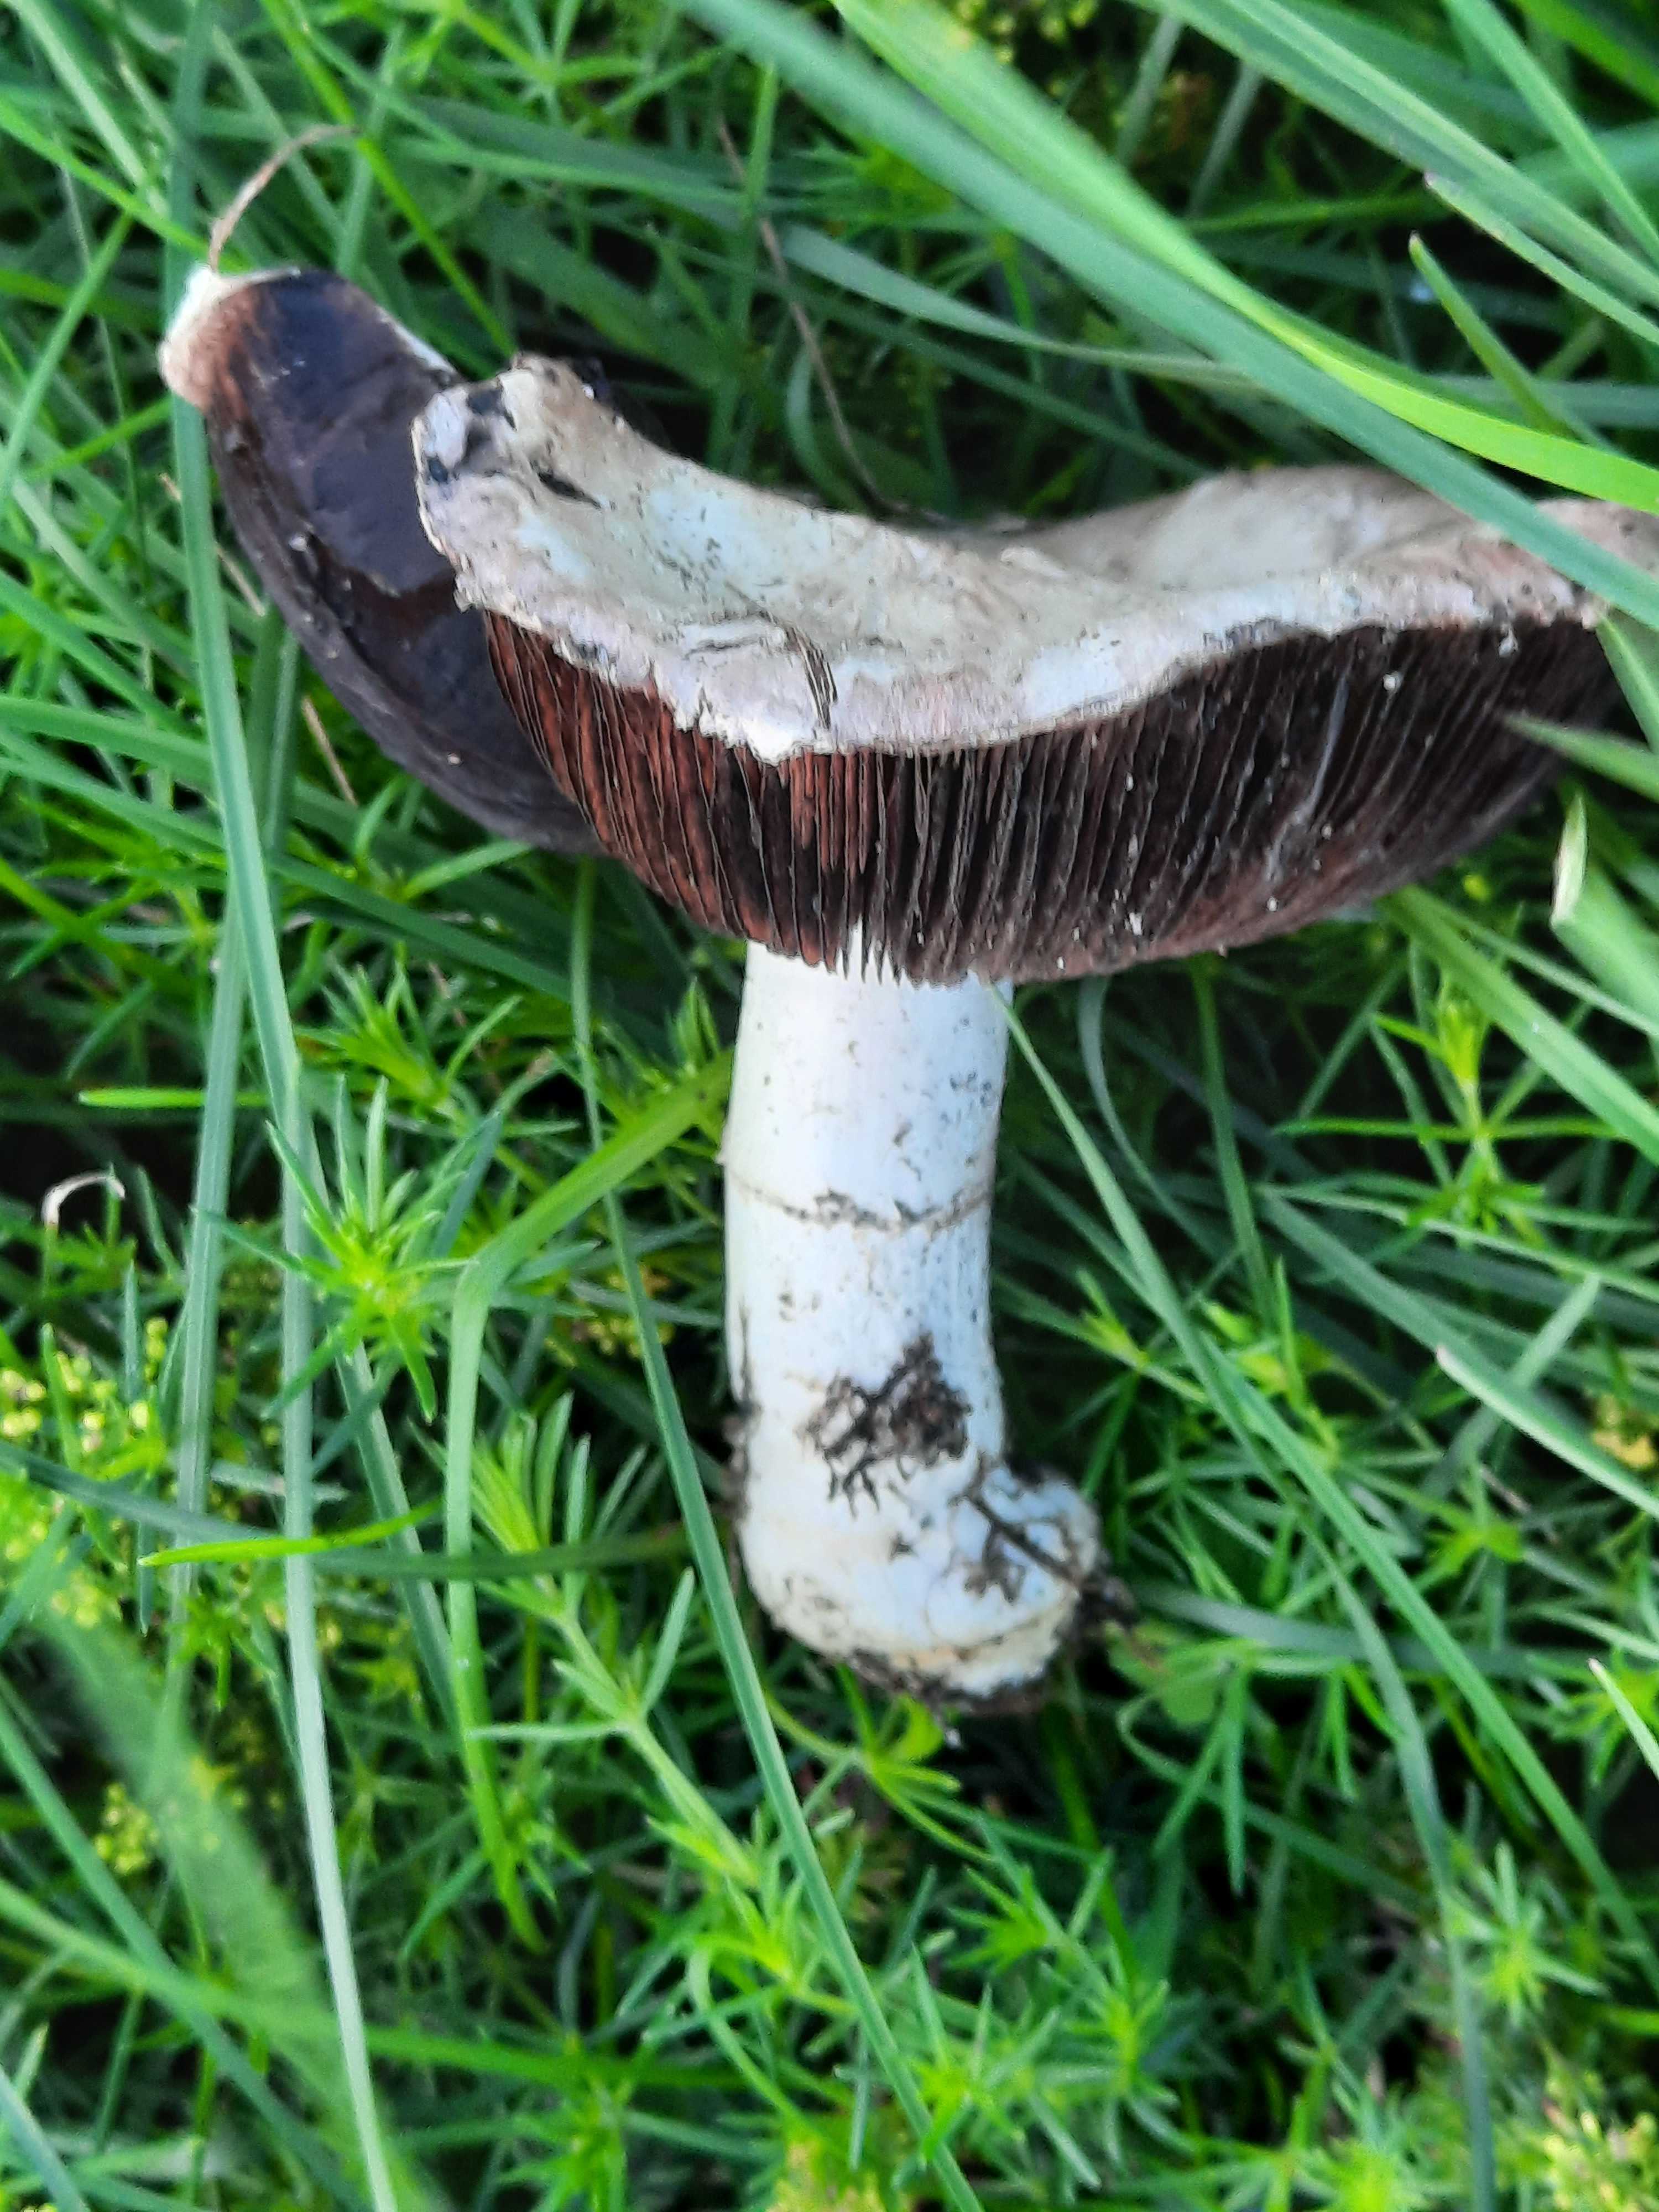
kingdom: Fungi
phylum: Basidiomycota
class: Agaricomycetes
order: Agaricales
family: Agaricaceae
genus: Agaricus
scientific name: Agaricus campestris
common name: mark-champignon
